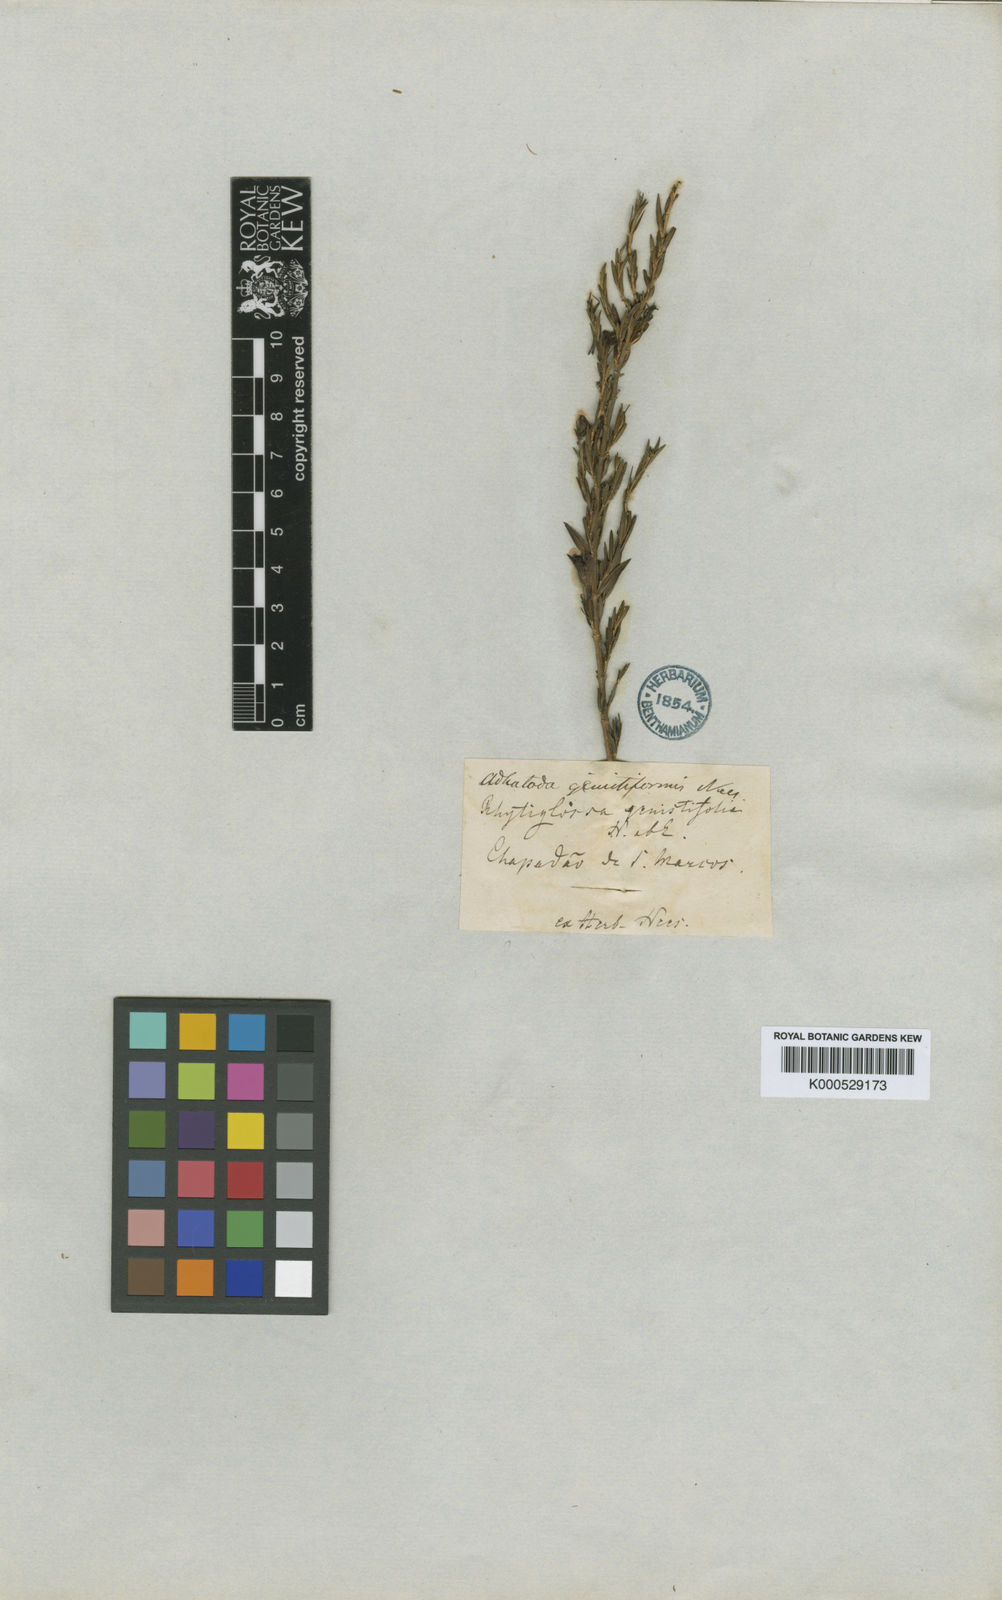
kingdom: Plantae
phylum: Tracheophyta
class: Magnoliopsida
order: Lamiales
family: Acanthaceae
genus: Justicia
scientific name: Justicia
